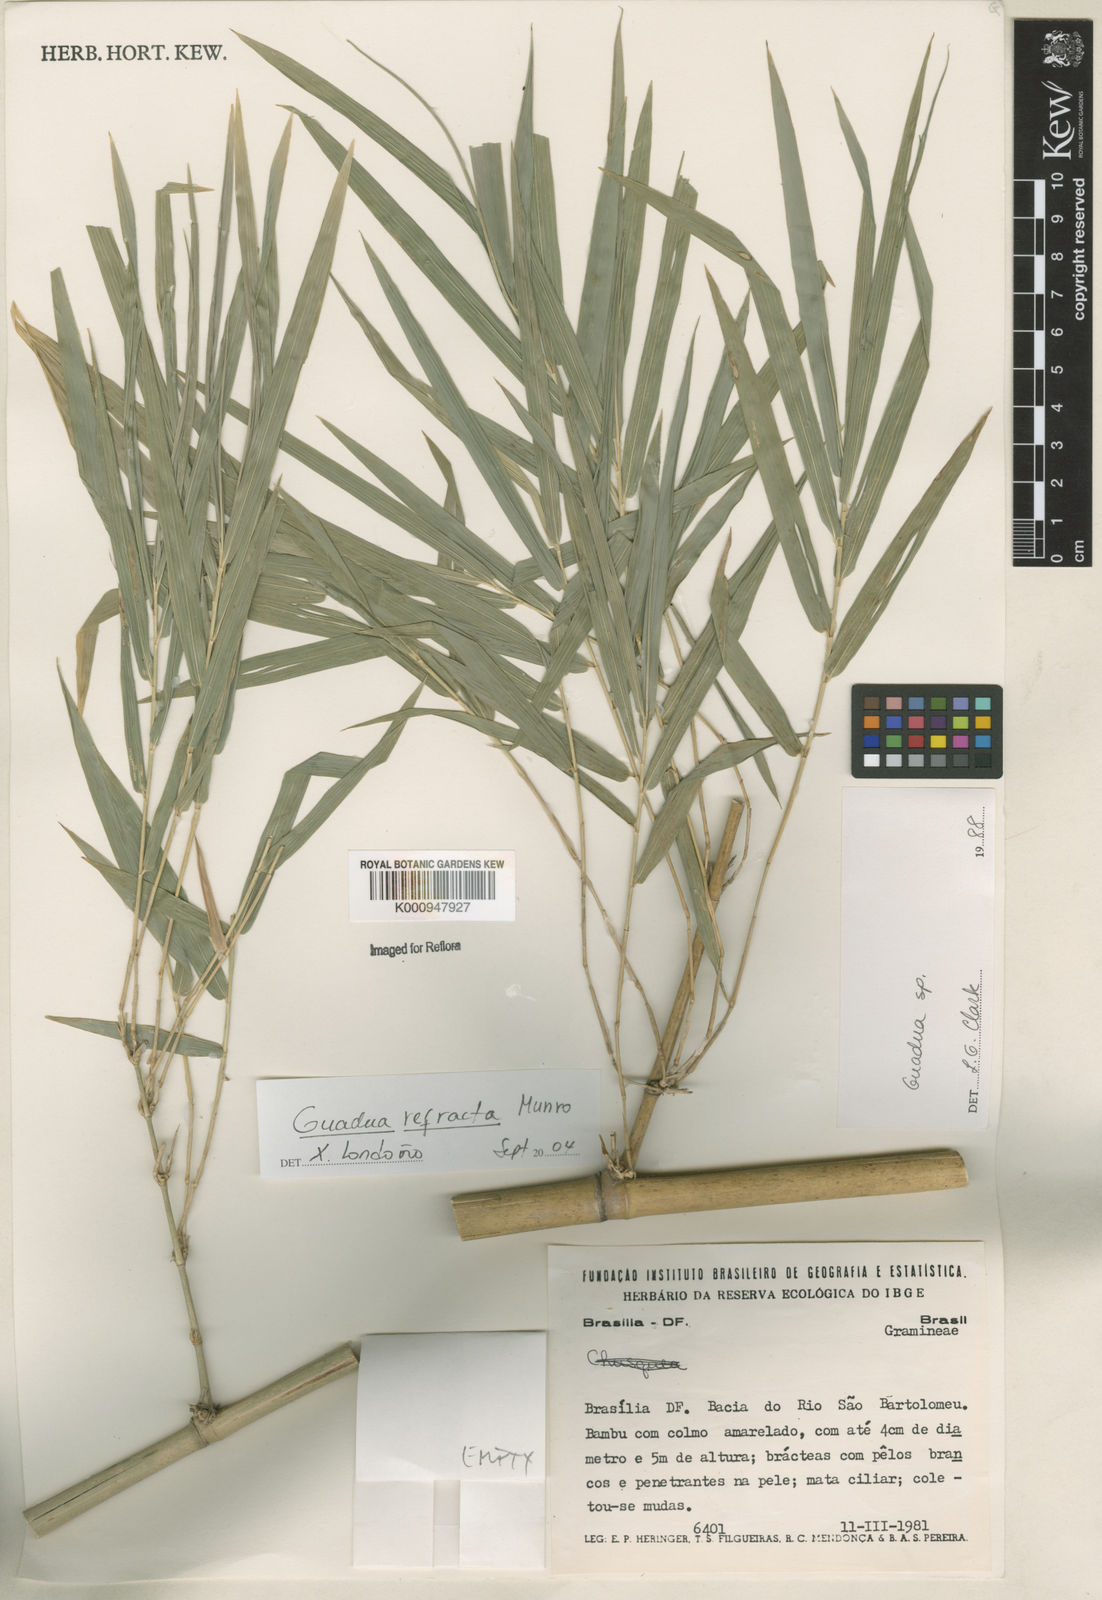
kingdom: Plantae
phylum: Tracheophyta
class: Liliopsida
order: Poales
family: Poaceae
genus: Guadua
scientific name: Guadua
